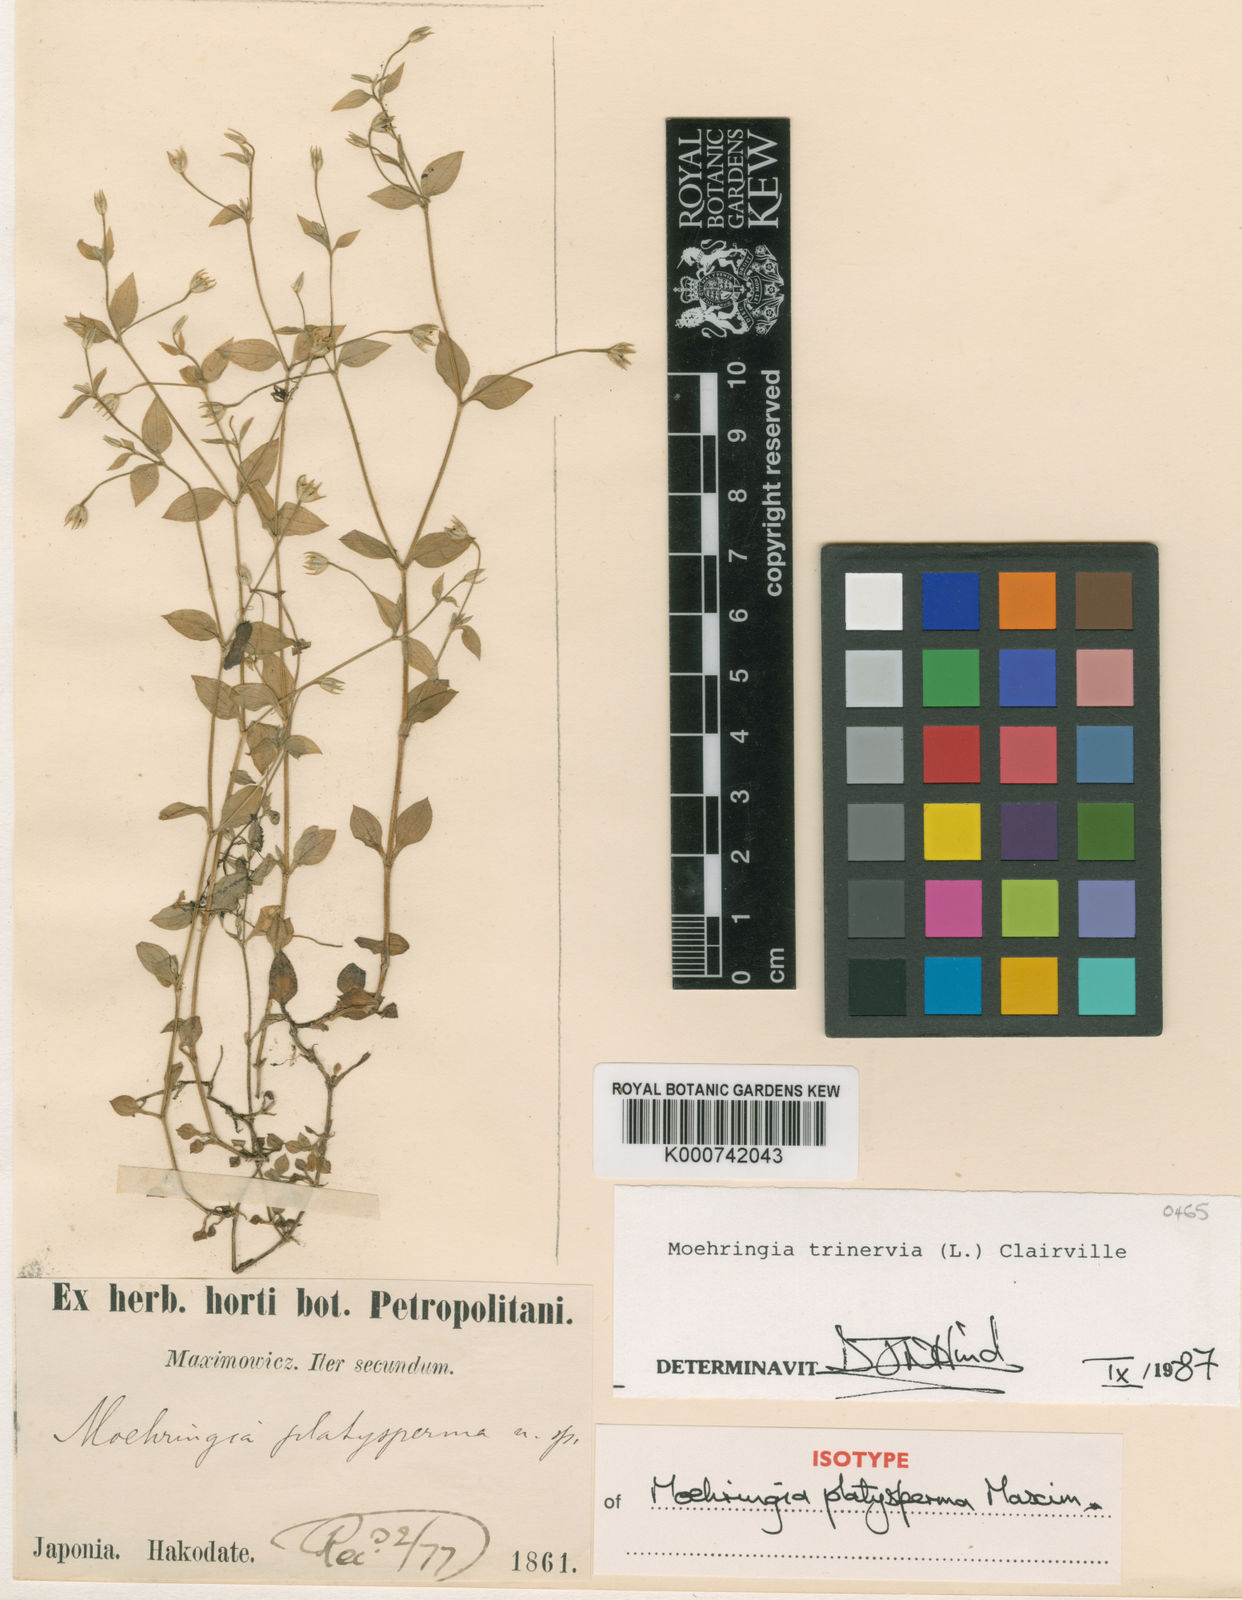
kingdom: Plantae
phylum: Tracheophyta
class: Magnoliopsida
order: Caryophyllales
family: Caryophyllaceae
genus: Moehringia
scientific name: Moehringia trinervia
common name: Three-nerved sandwort
